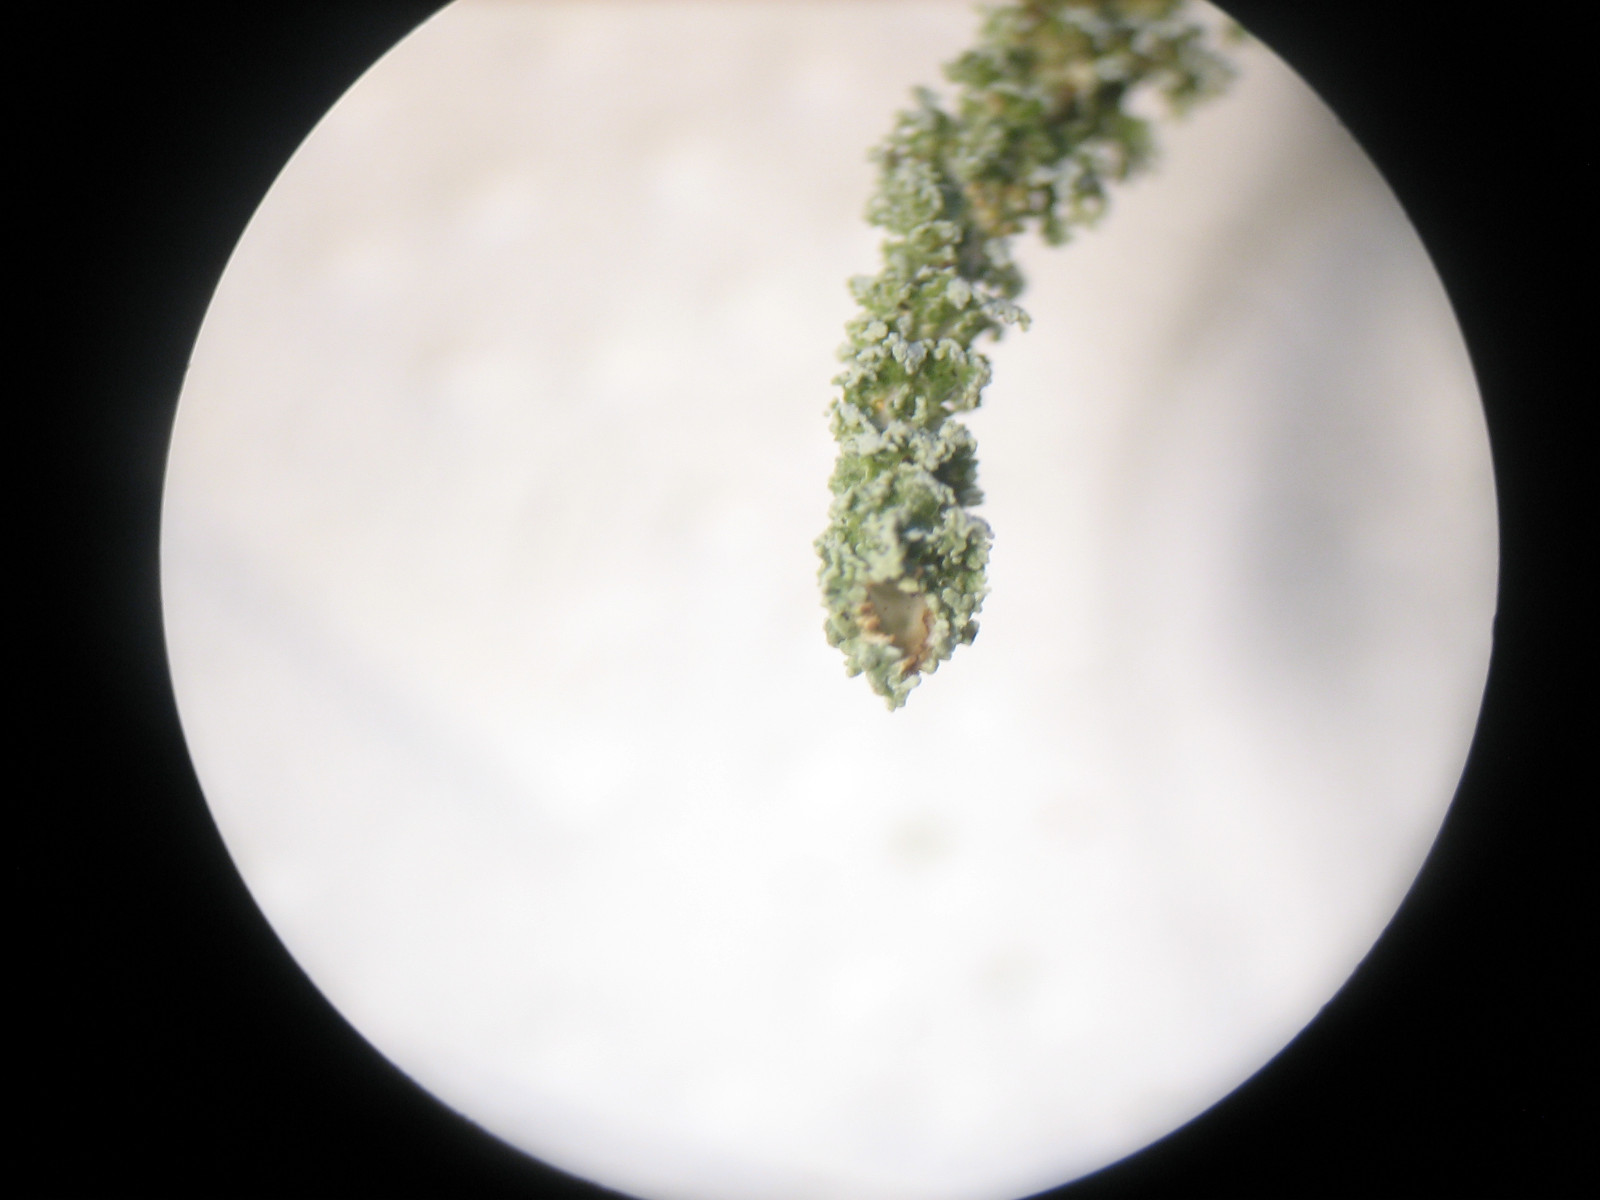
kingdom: Fungi
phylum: Ascomycota
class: Lecanoromycetes
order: Lecanorales
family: Cladoniaceae
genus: Cladonia
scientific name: Cladonia squamosa
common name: skælklædt bægerlav
